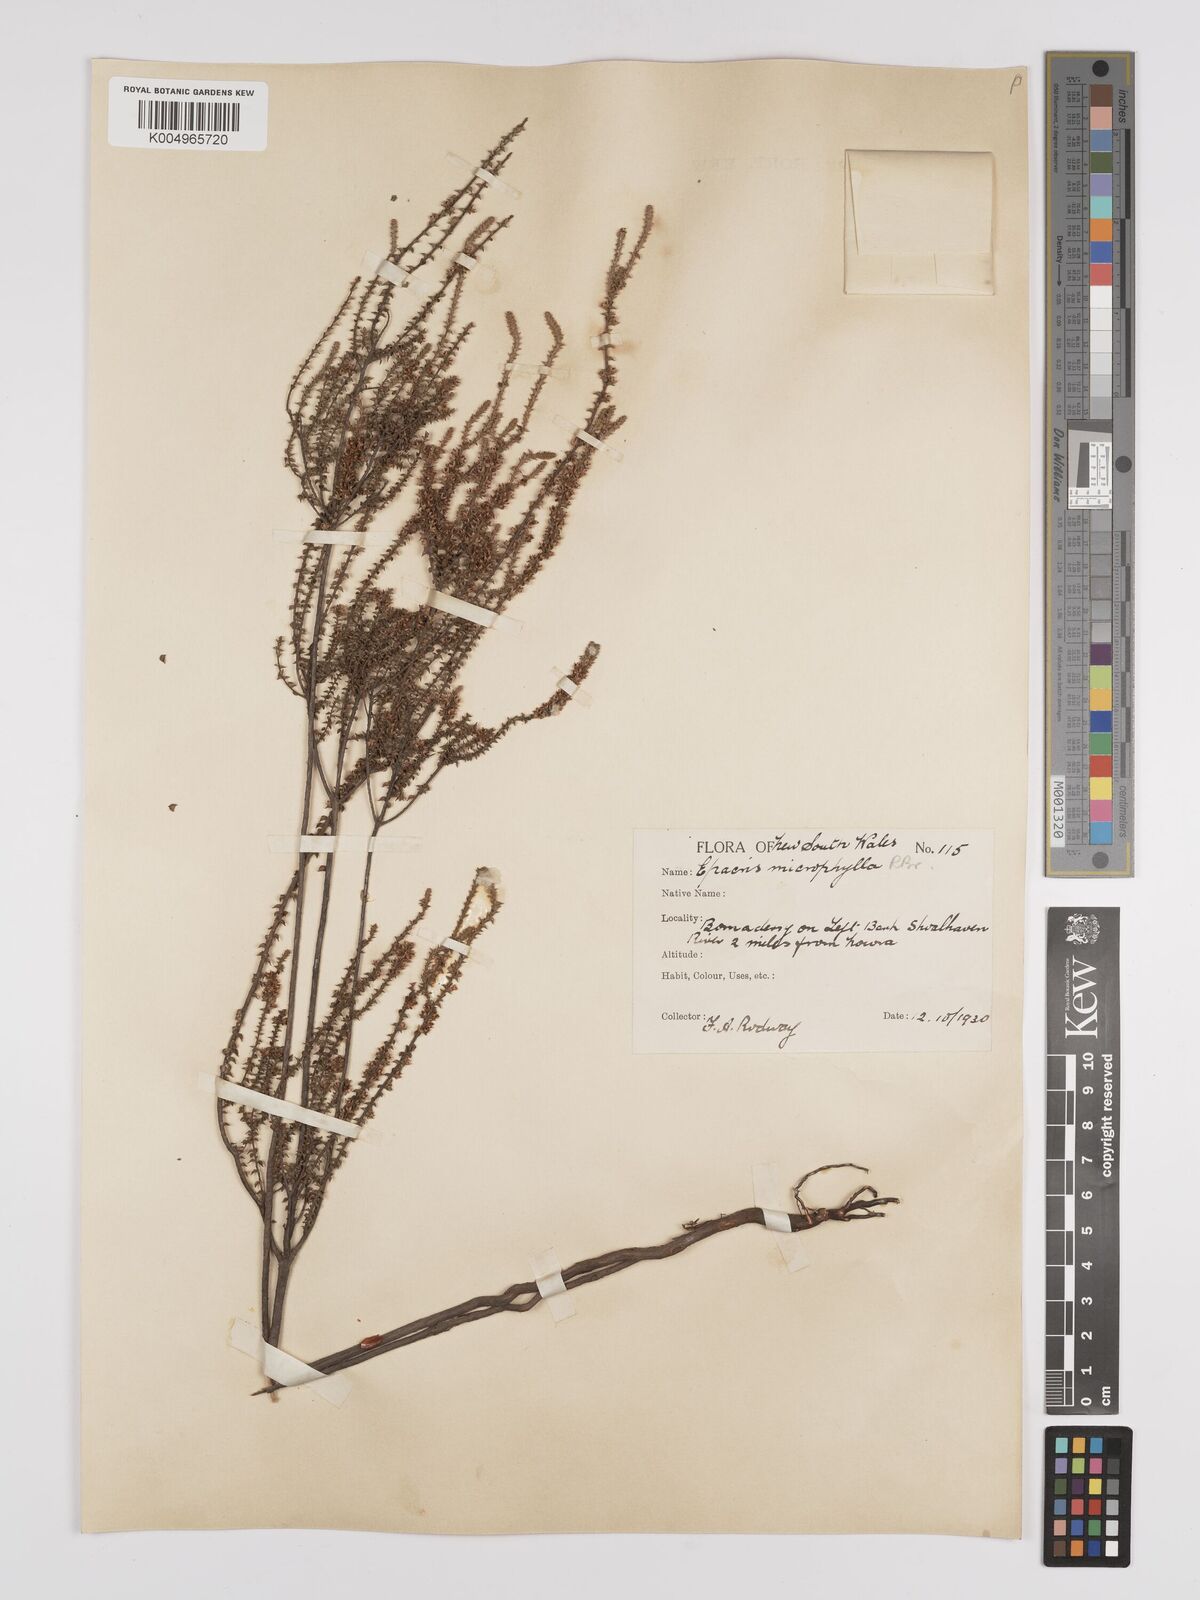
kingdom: Plantae
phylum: Tracheophyta
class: Magnoliopsida
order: Ericales
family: Ericaceae
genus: Epacris
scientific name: Epacris
